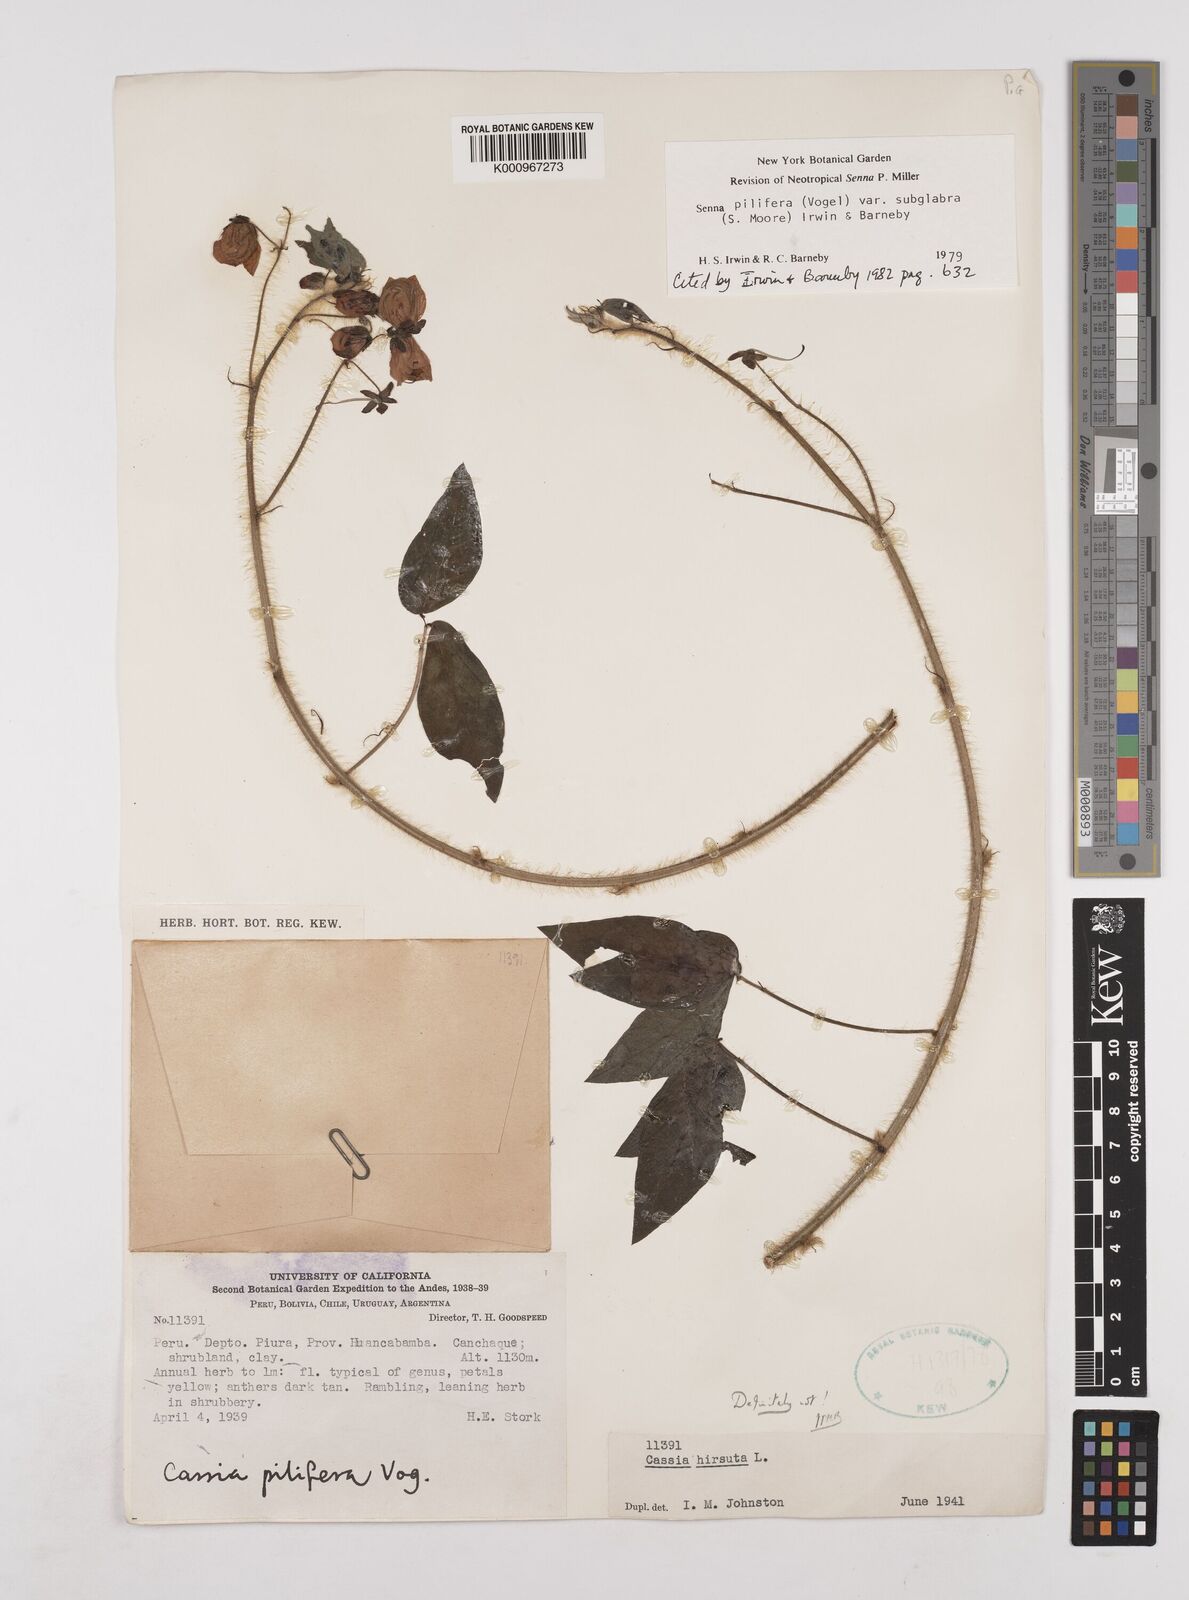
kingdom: Plantae
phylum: Tracheophyta
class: Magnoliopsida
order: Fabales
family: Fabaceae
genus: Senna
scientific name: Senna pilifera
